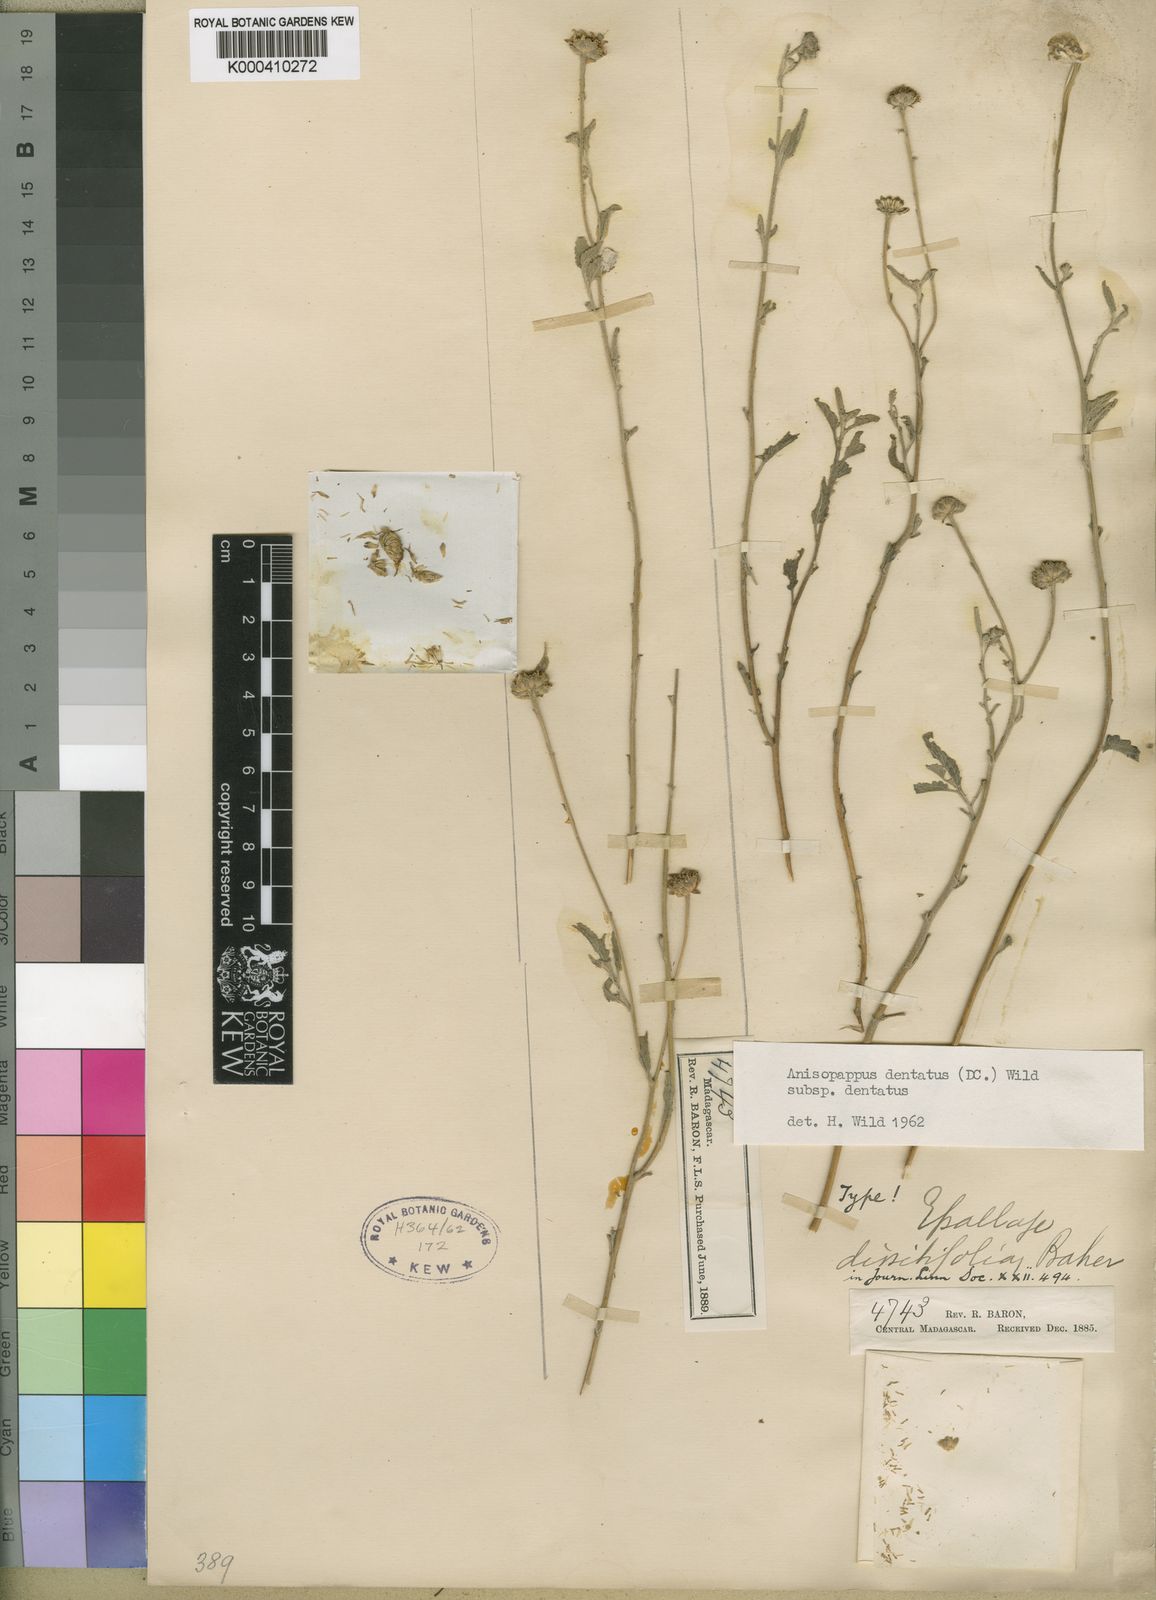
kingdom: Plantae
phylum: Tracheophyta
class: Magnoliopsida
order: Asterales
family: Asteraceae
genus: Anisopappus
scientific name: Anisopappus chinensis
